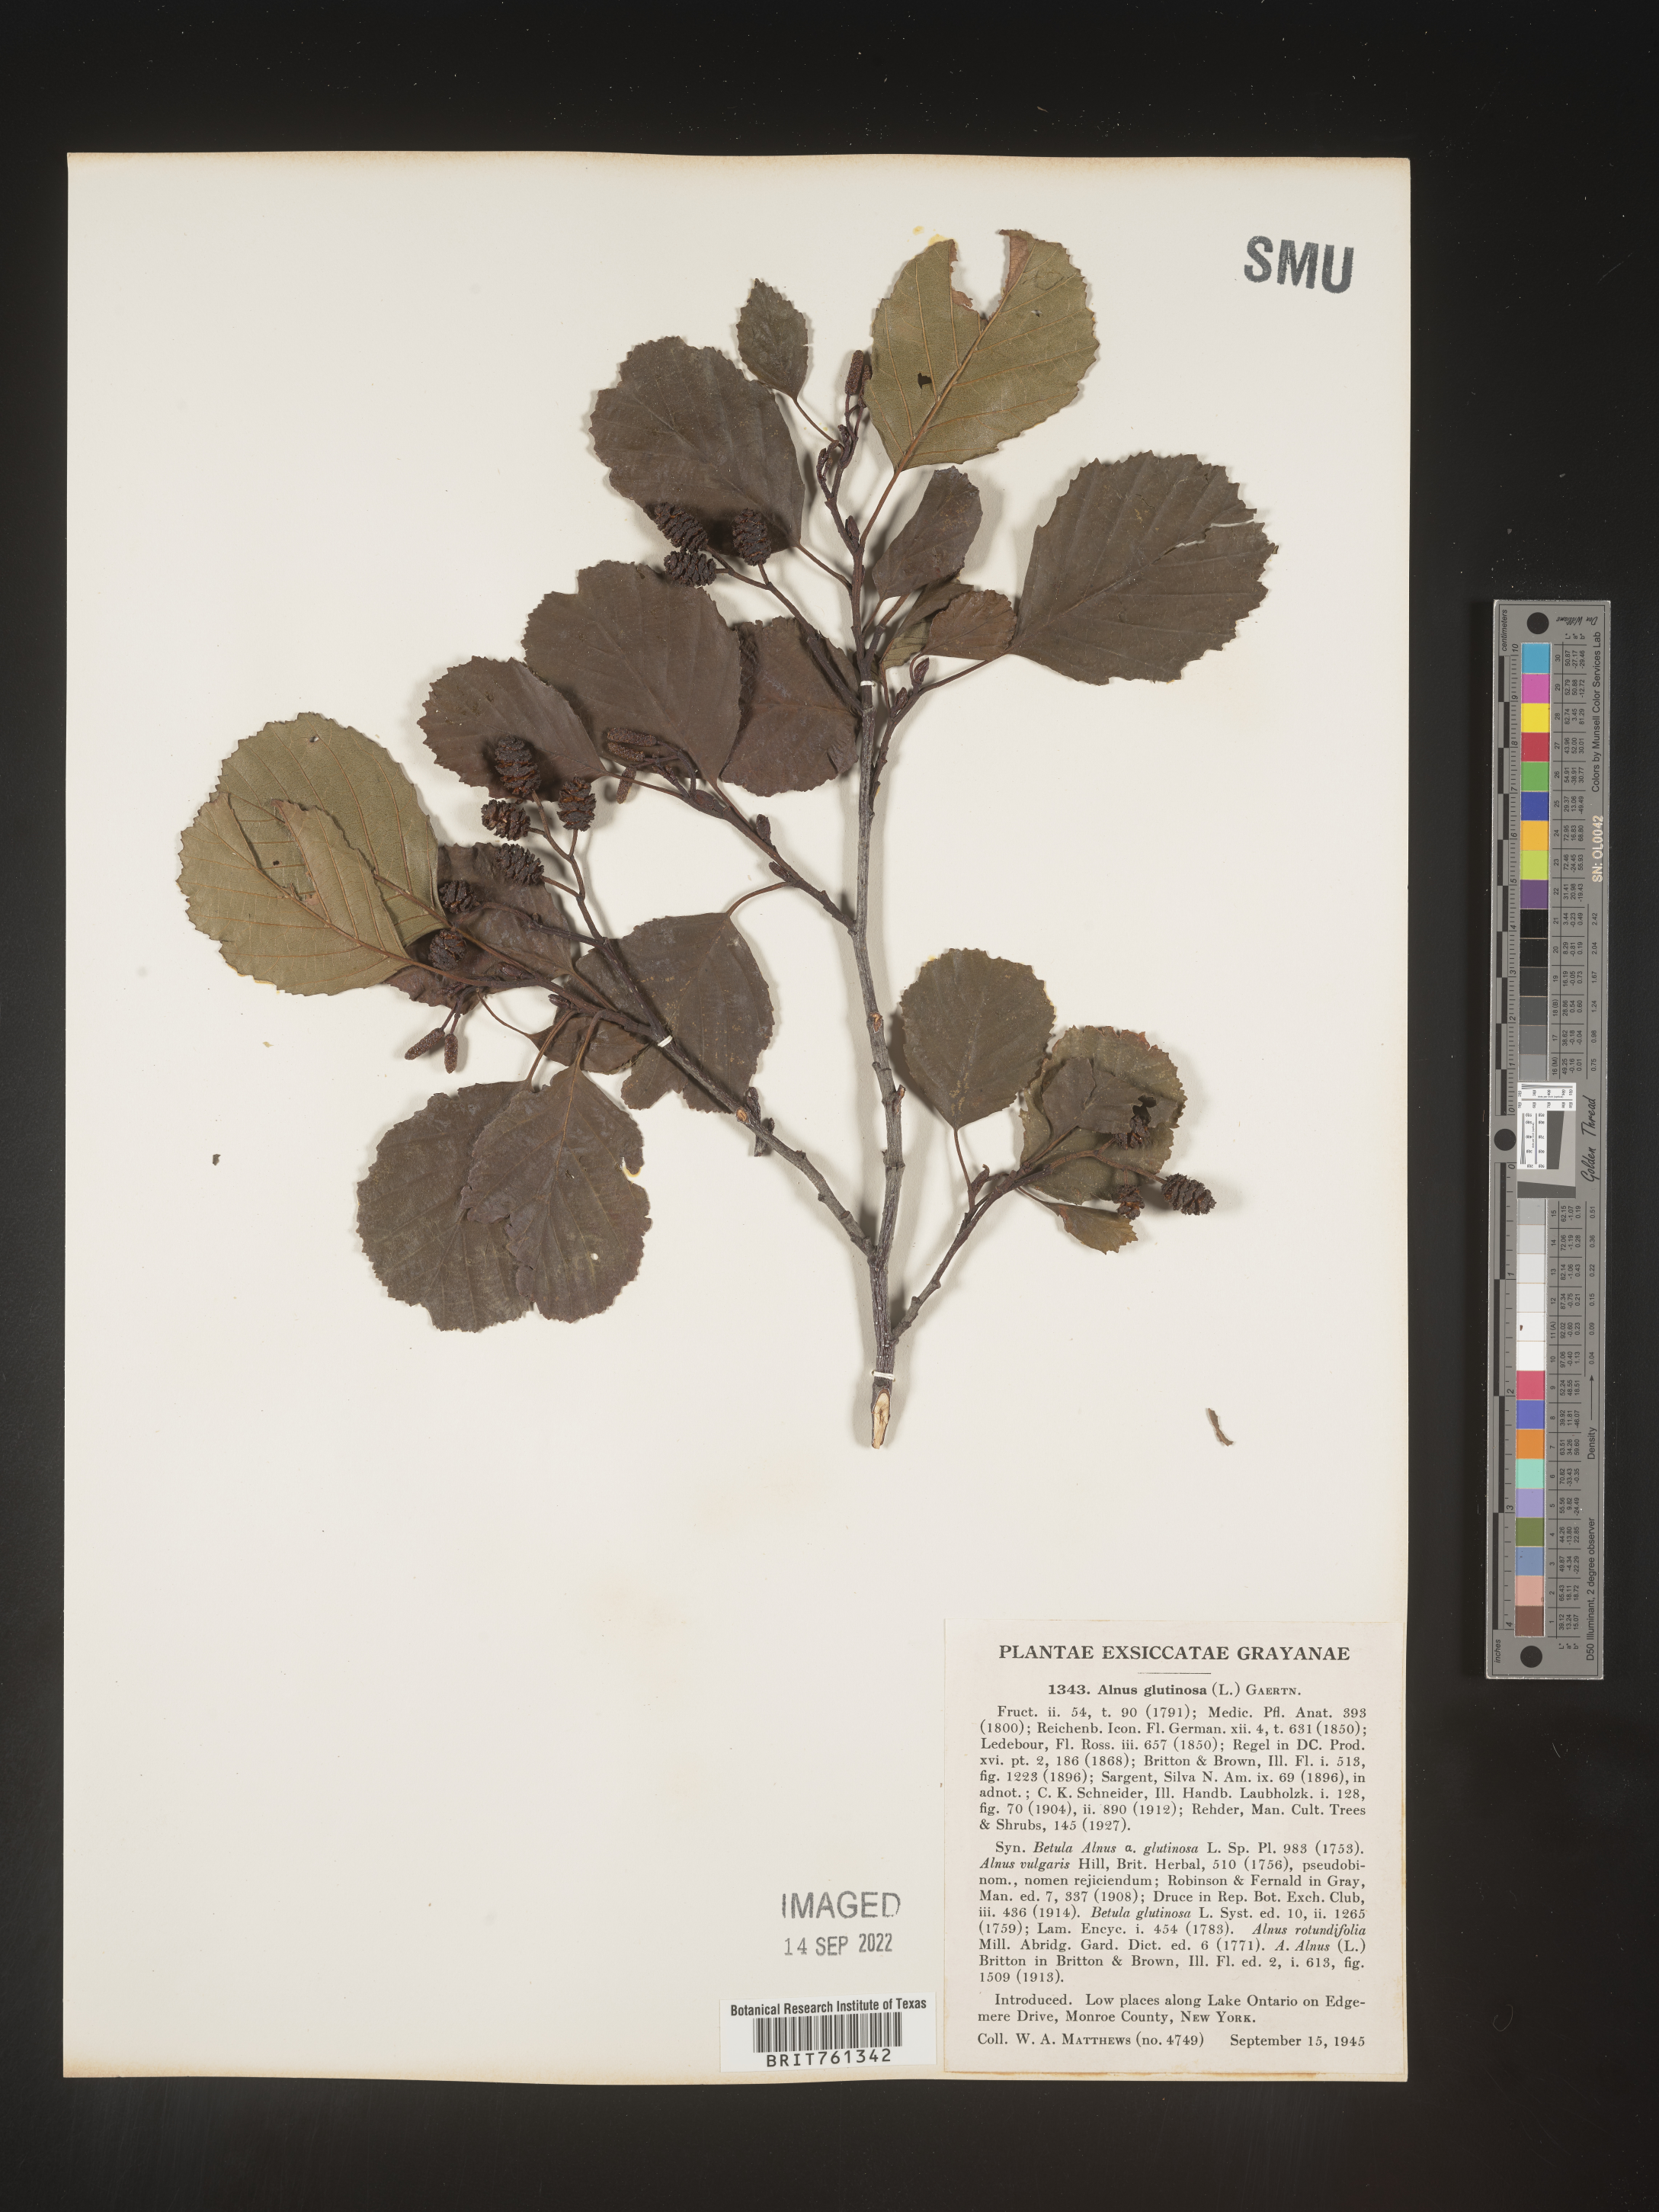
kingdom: Plantae
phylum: Tracheophyta
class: Magnoliopsida
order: Fagales
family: Betulaceae
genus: Alnus
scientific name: Alnus
